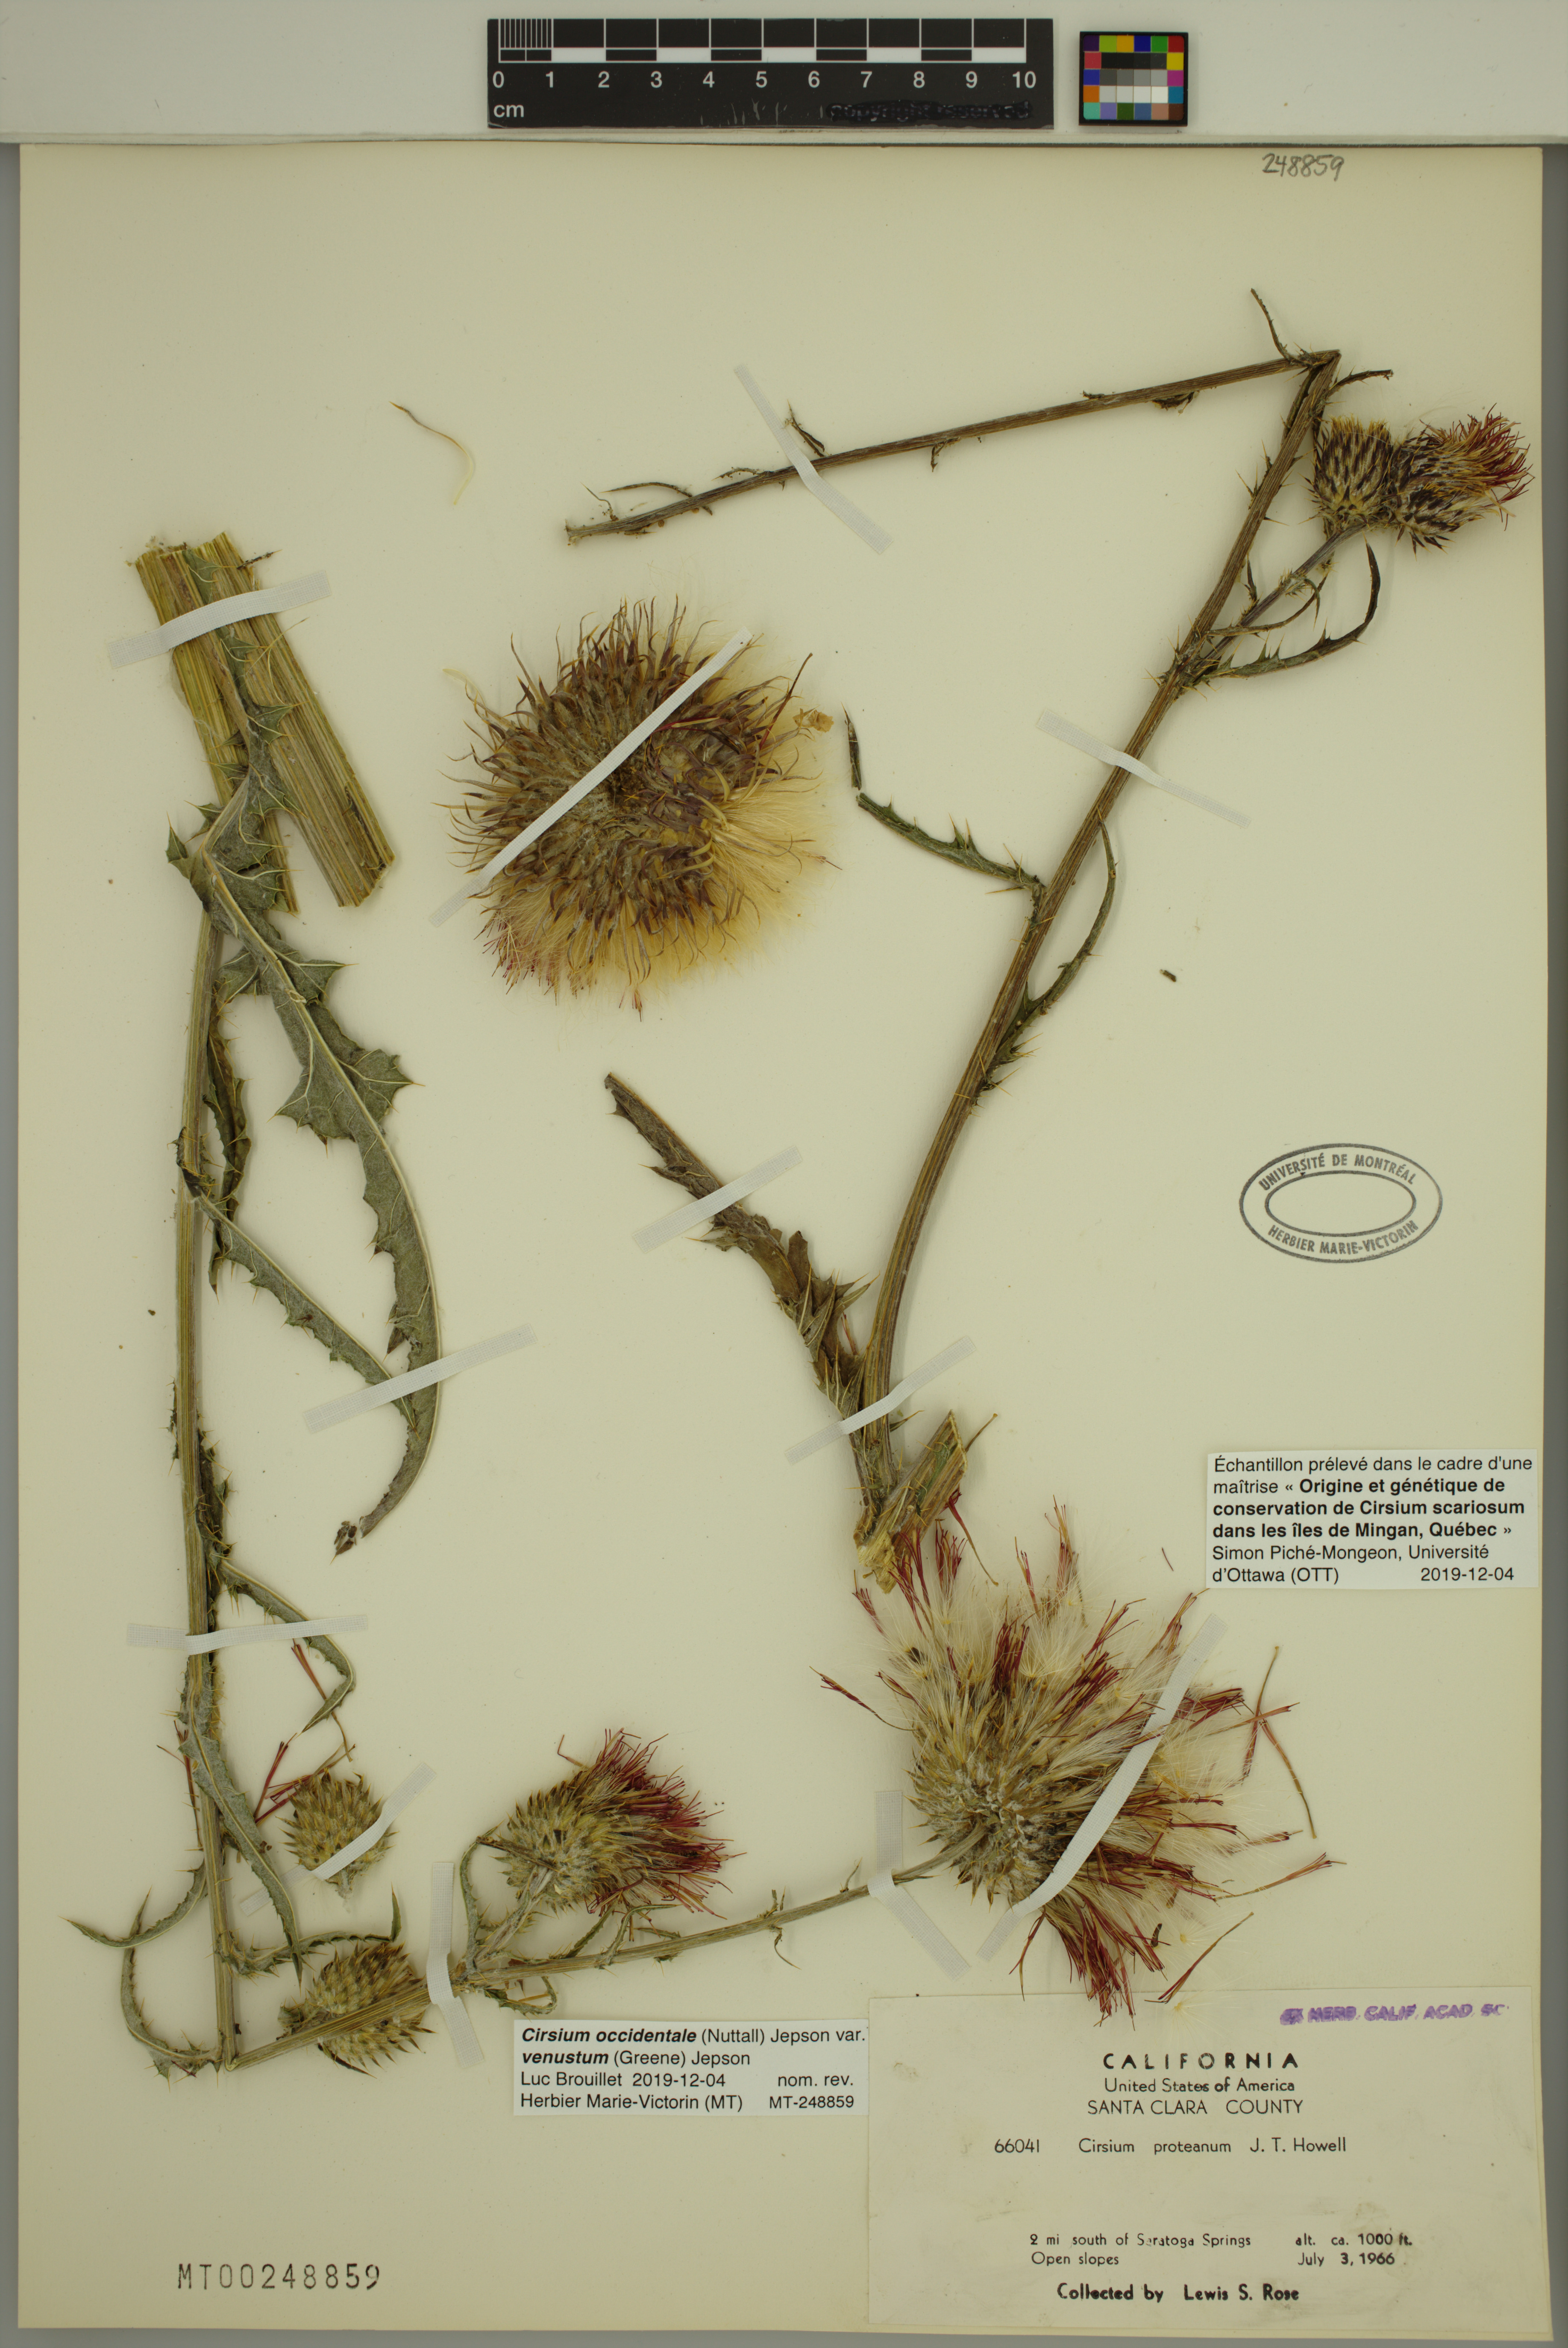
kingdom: Plantae
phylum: Tracheophyta
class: Magnoliopsida
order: Asterales
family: Asteraceae
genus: Cirsium
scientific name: Cirsium occidentale
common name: Western thistle
